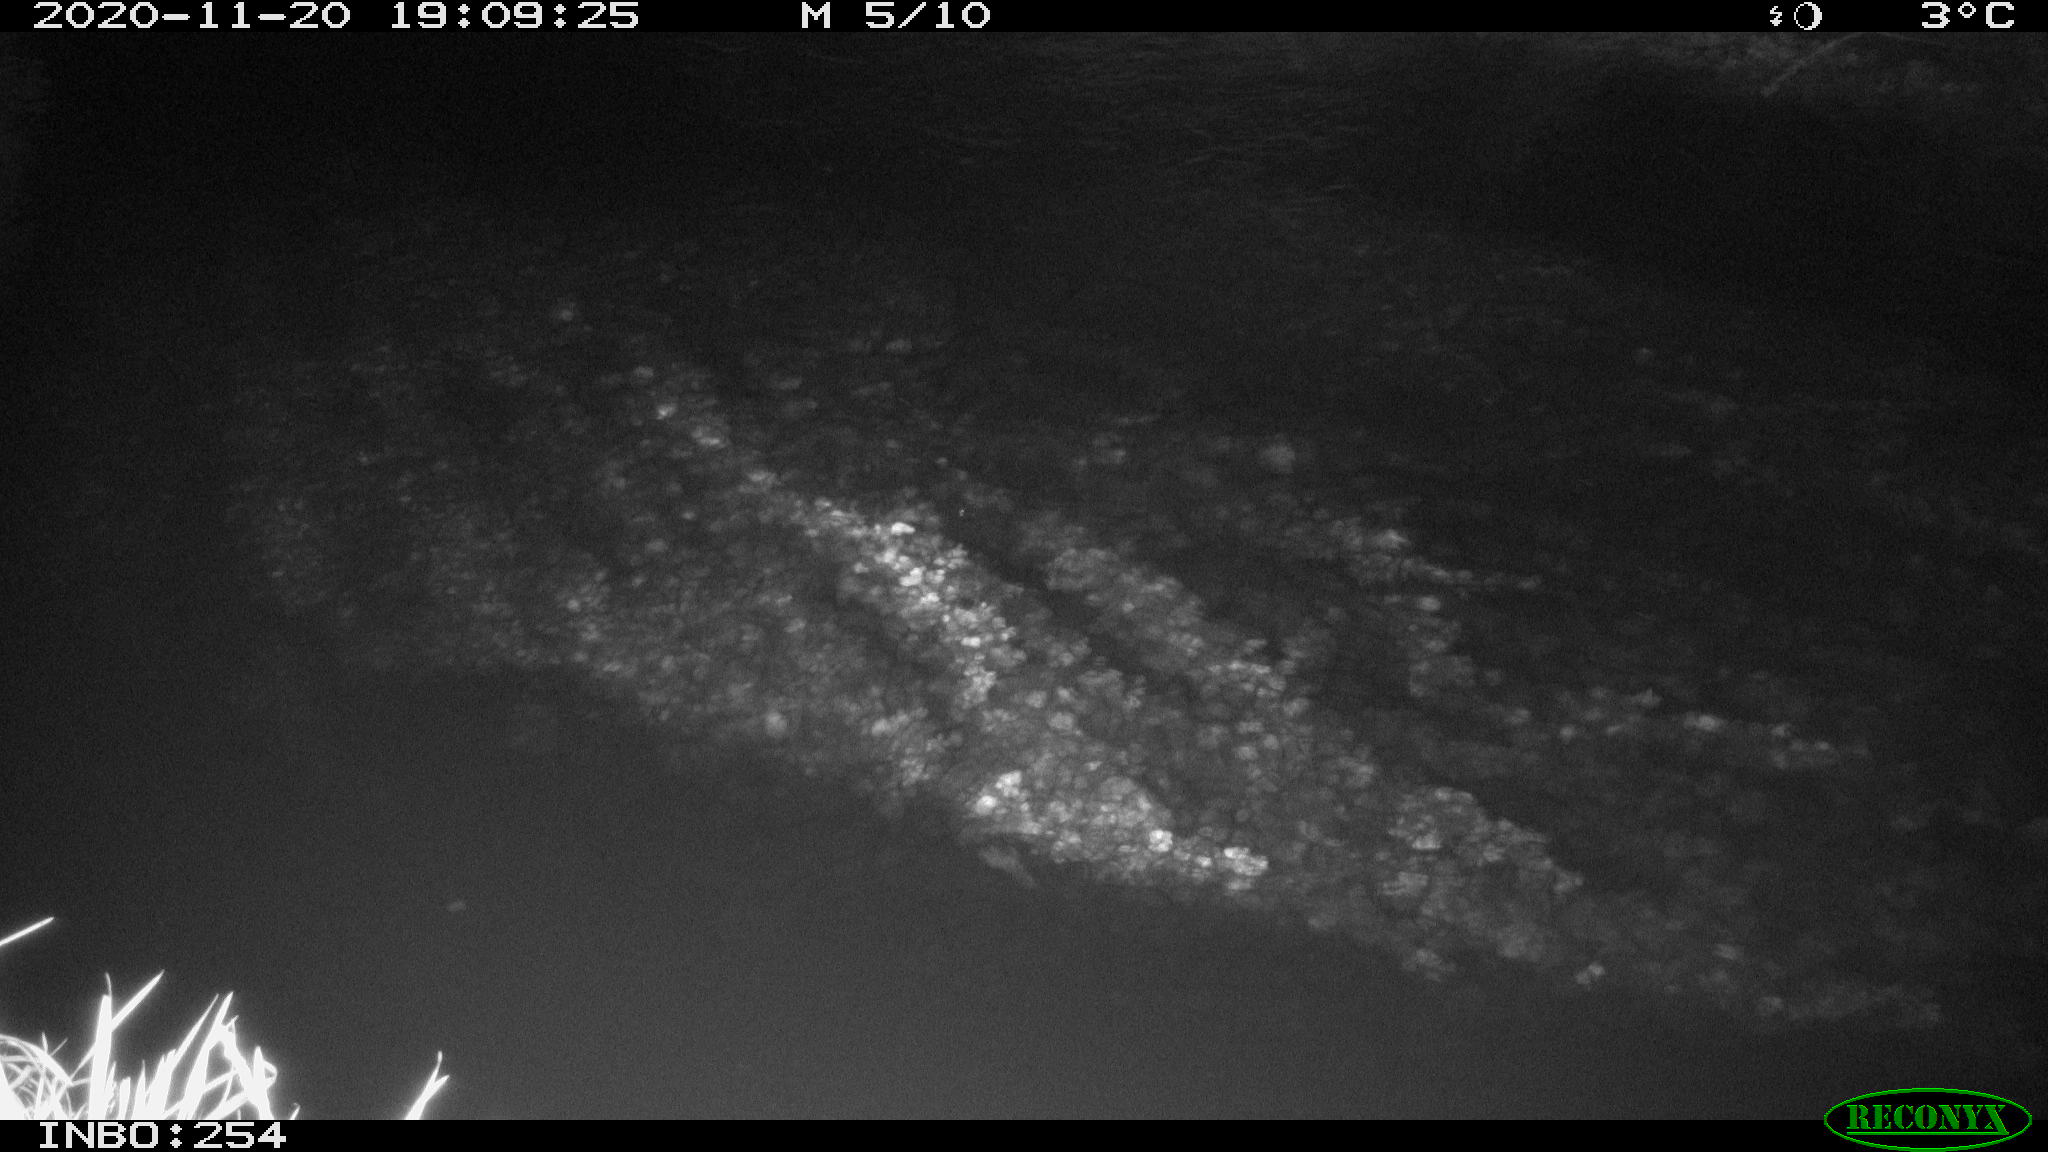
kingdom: Animalia
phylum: Chordata
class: Aves
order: Anseriformes
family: Anatidae
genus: Anas
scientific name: Anas platyrhynchos
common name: Mallard
